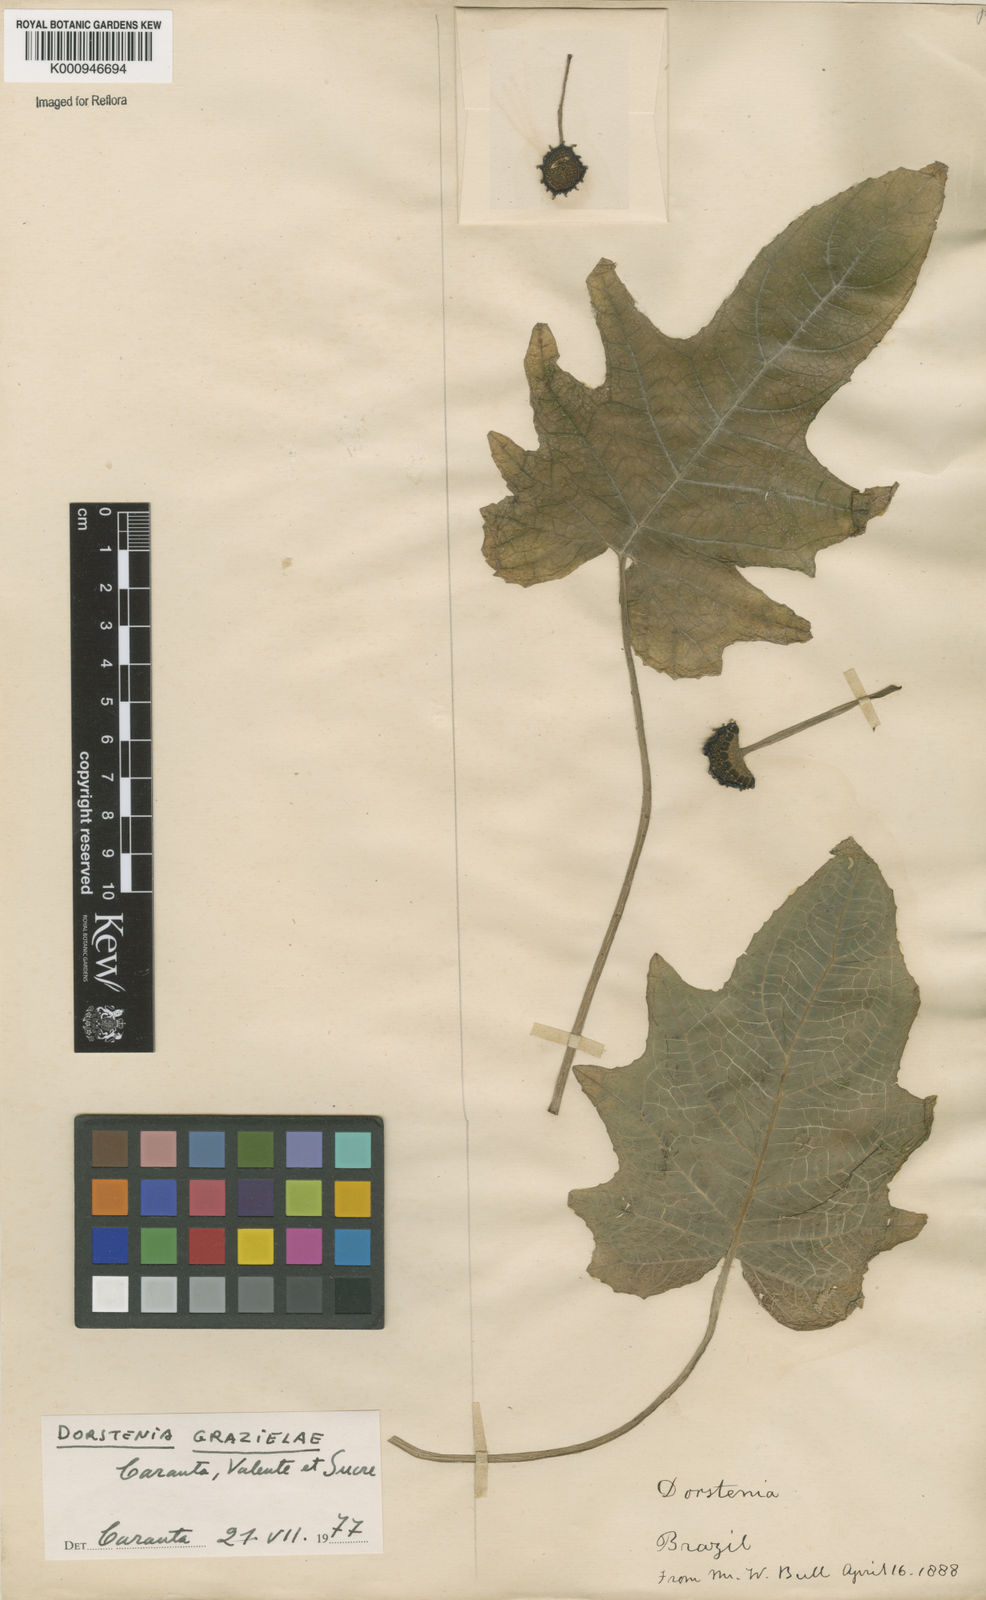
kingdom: Plantae
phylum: Tracheophyta
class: Magnoliopsida
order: Rosales
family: Moraceae
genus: Dorstenia
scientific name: Dorstenia grazielae
